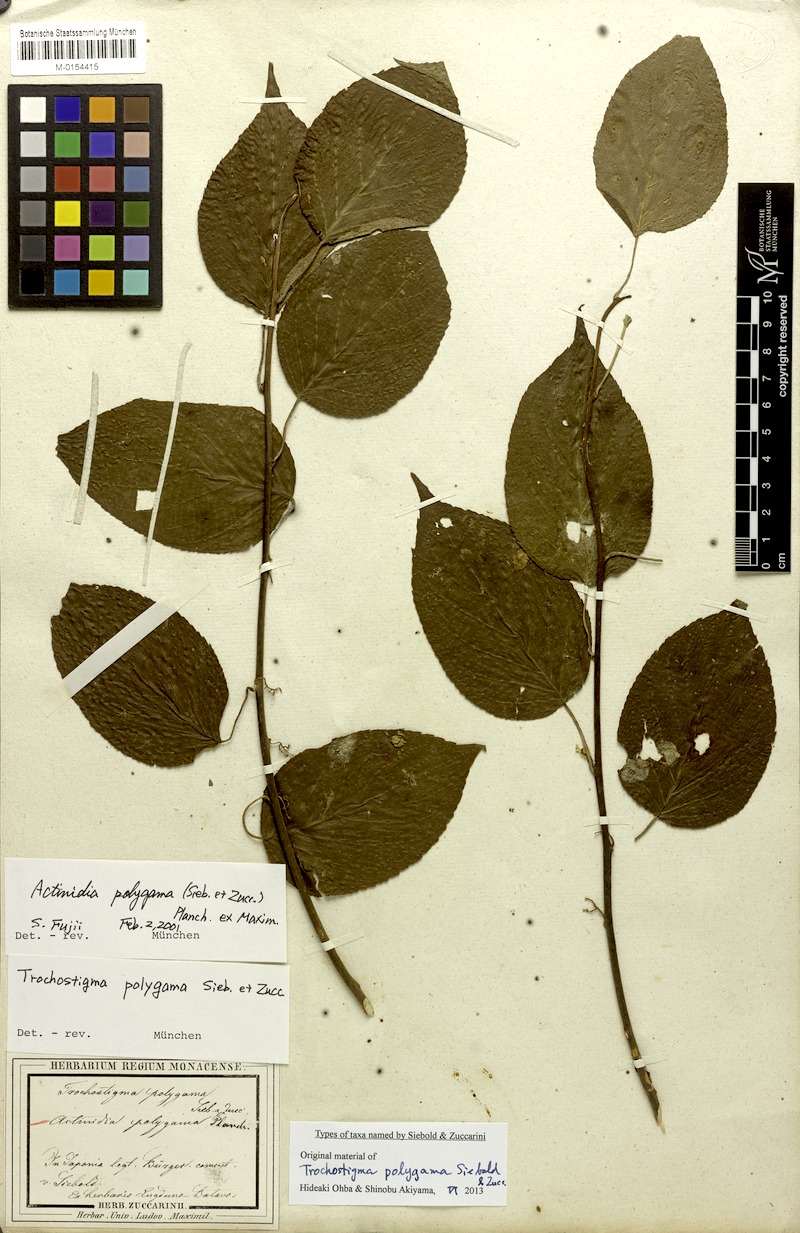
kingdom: Plantae
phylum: Tracheophyta
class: Magnoliopsida
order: Ericales
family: Actinidiaceae
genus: Actinidia
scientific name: Actinidia polygama
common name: Silver vine
